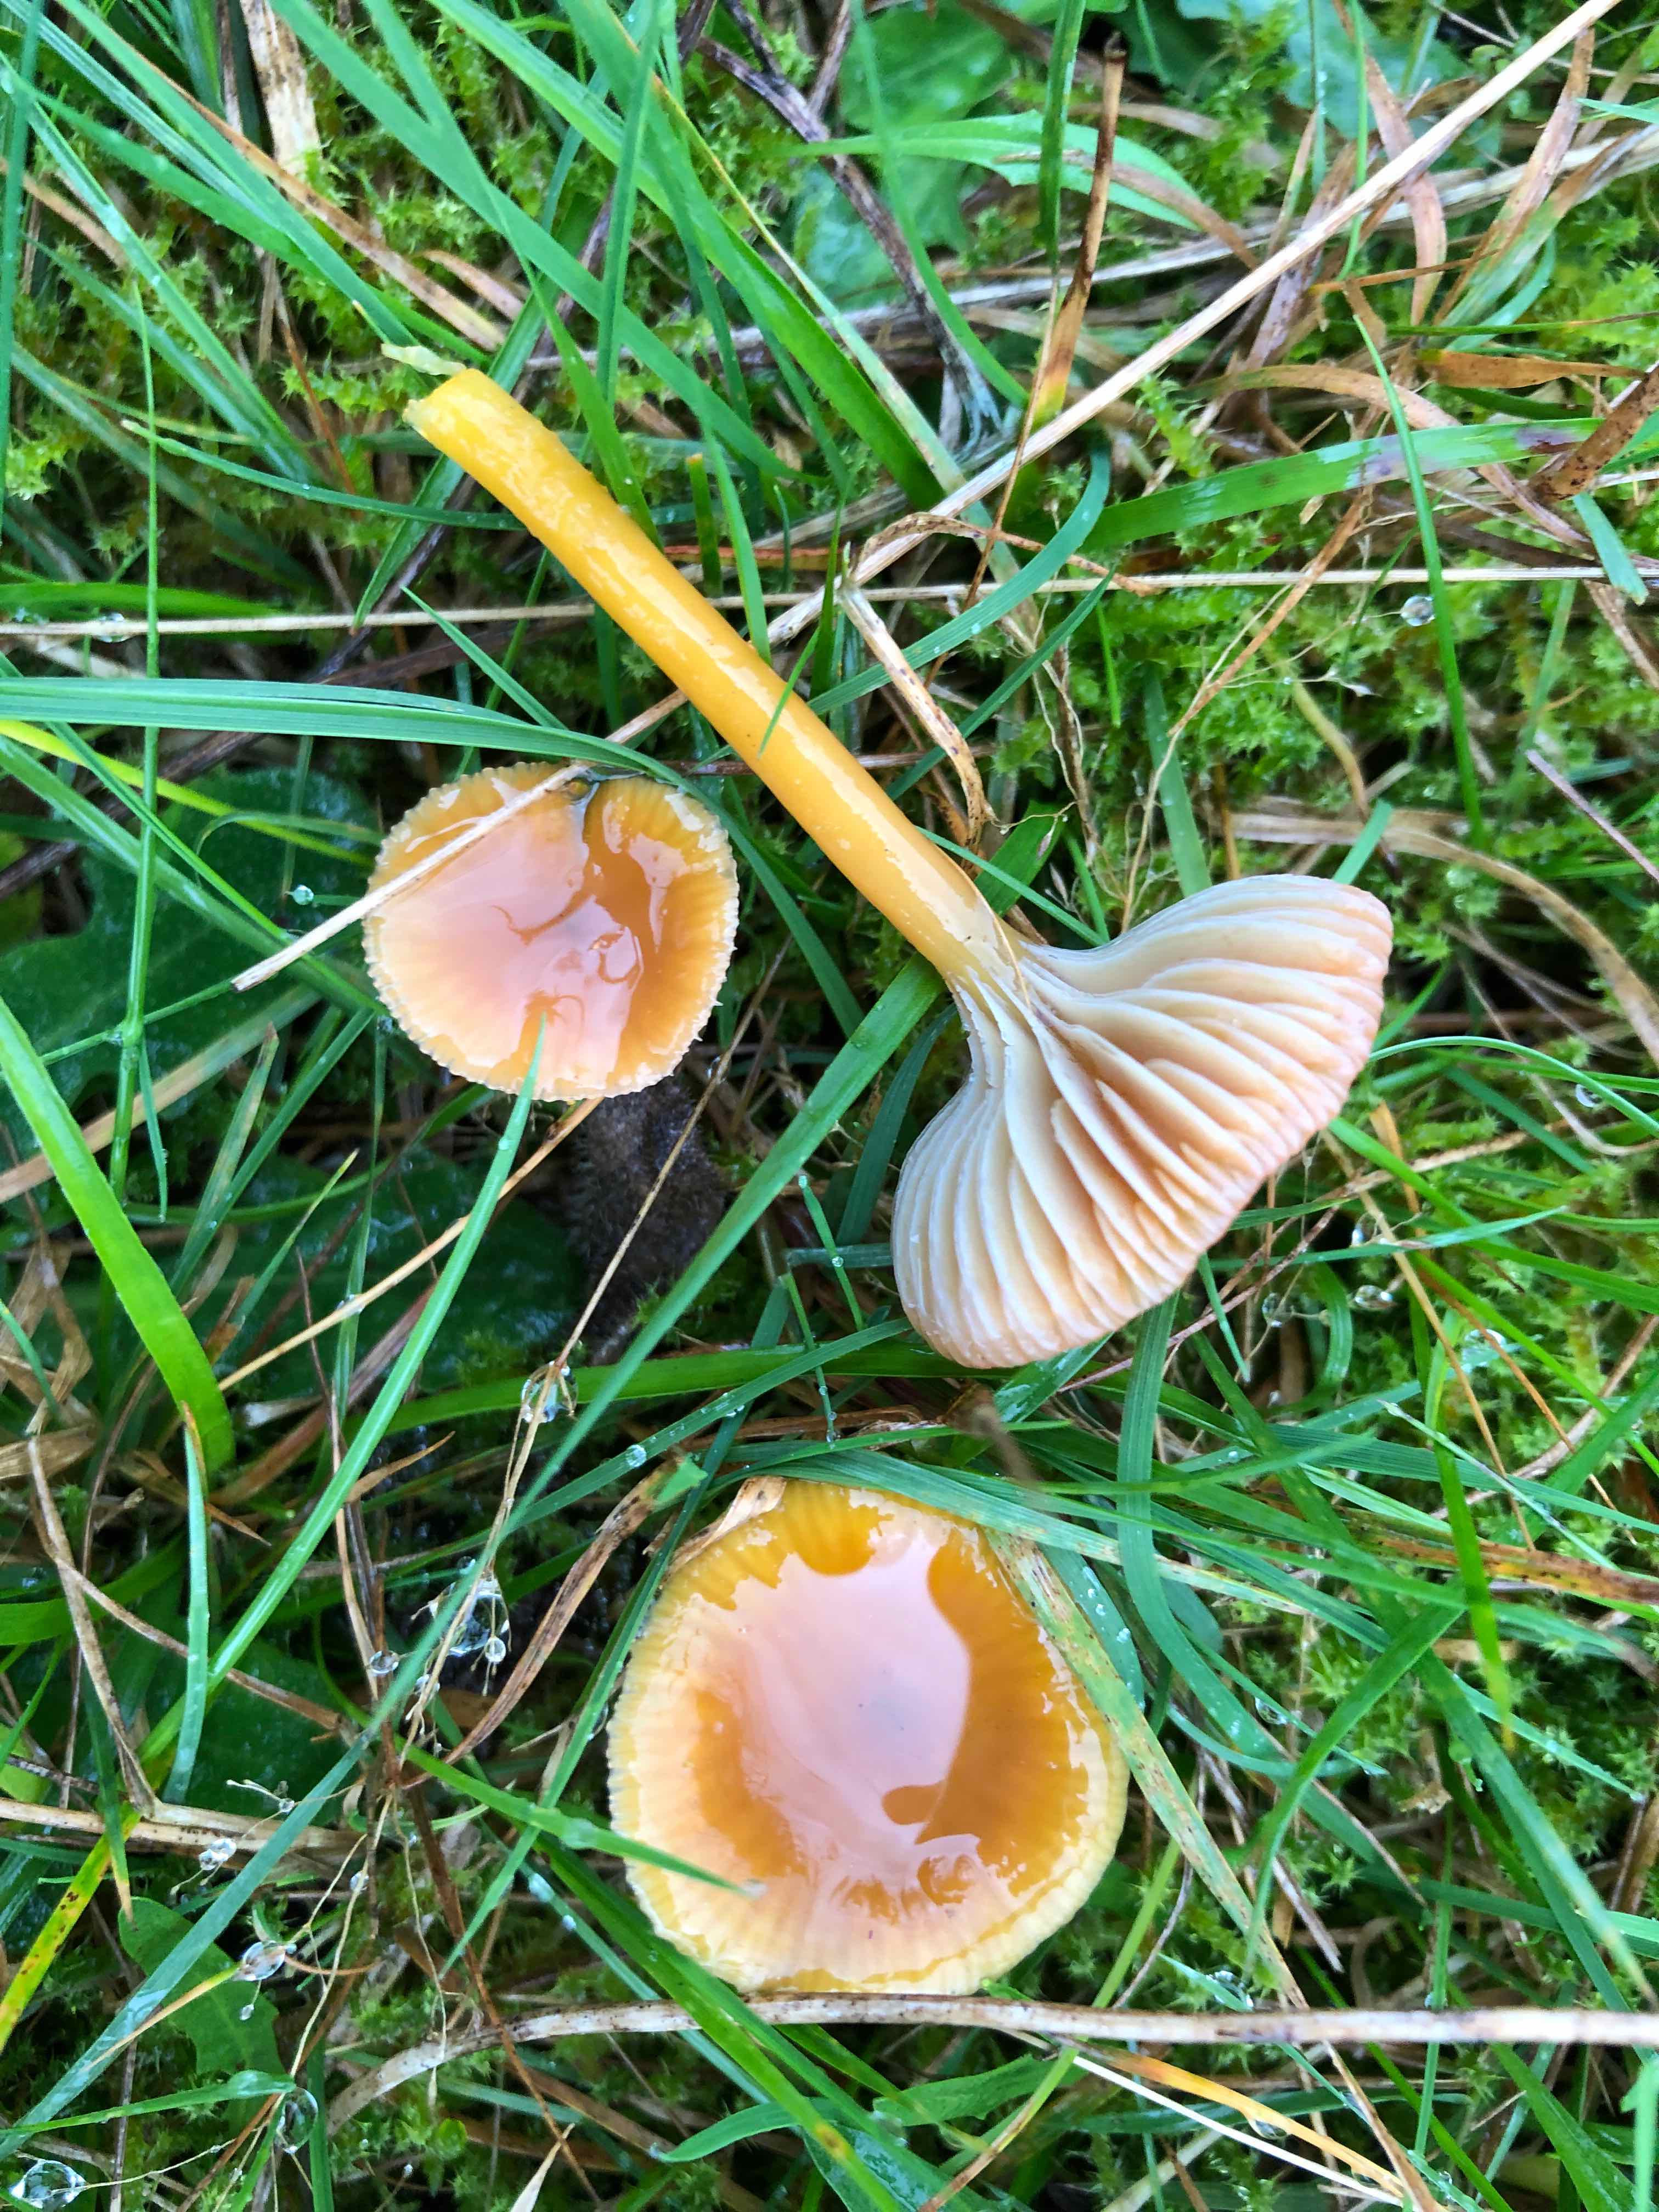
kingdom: Fungi
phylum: Basidiomycota
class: Agaricomycetes
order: Agaricales
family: Hygrophoraceae
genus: Gliophorus
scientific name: Gliophorus laetus
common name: brusk-vokshat
